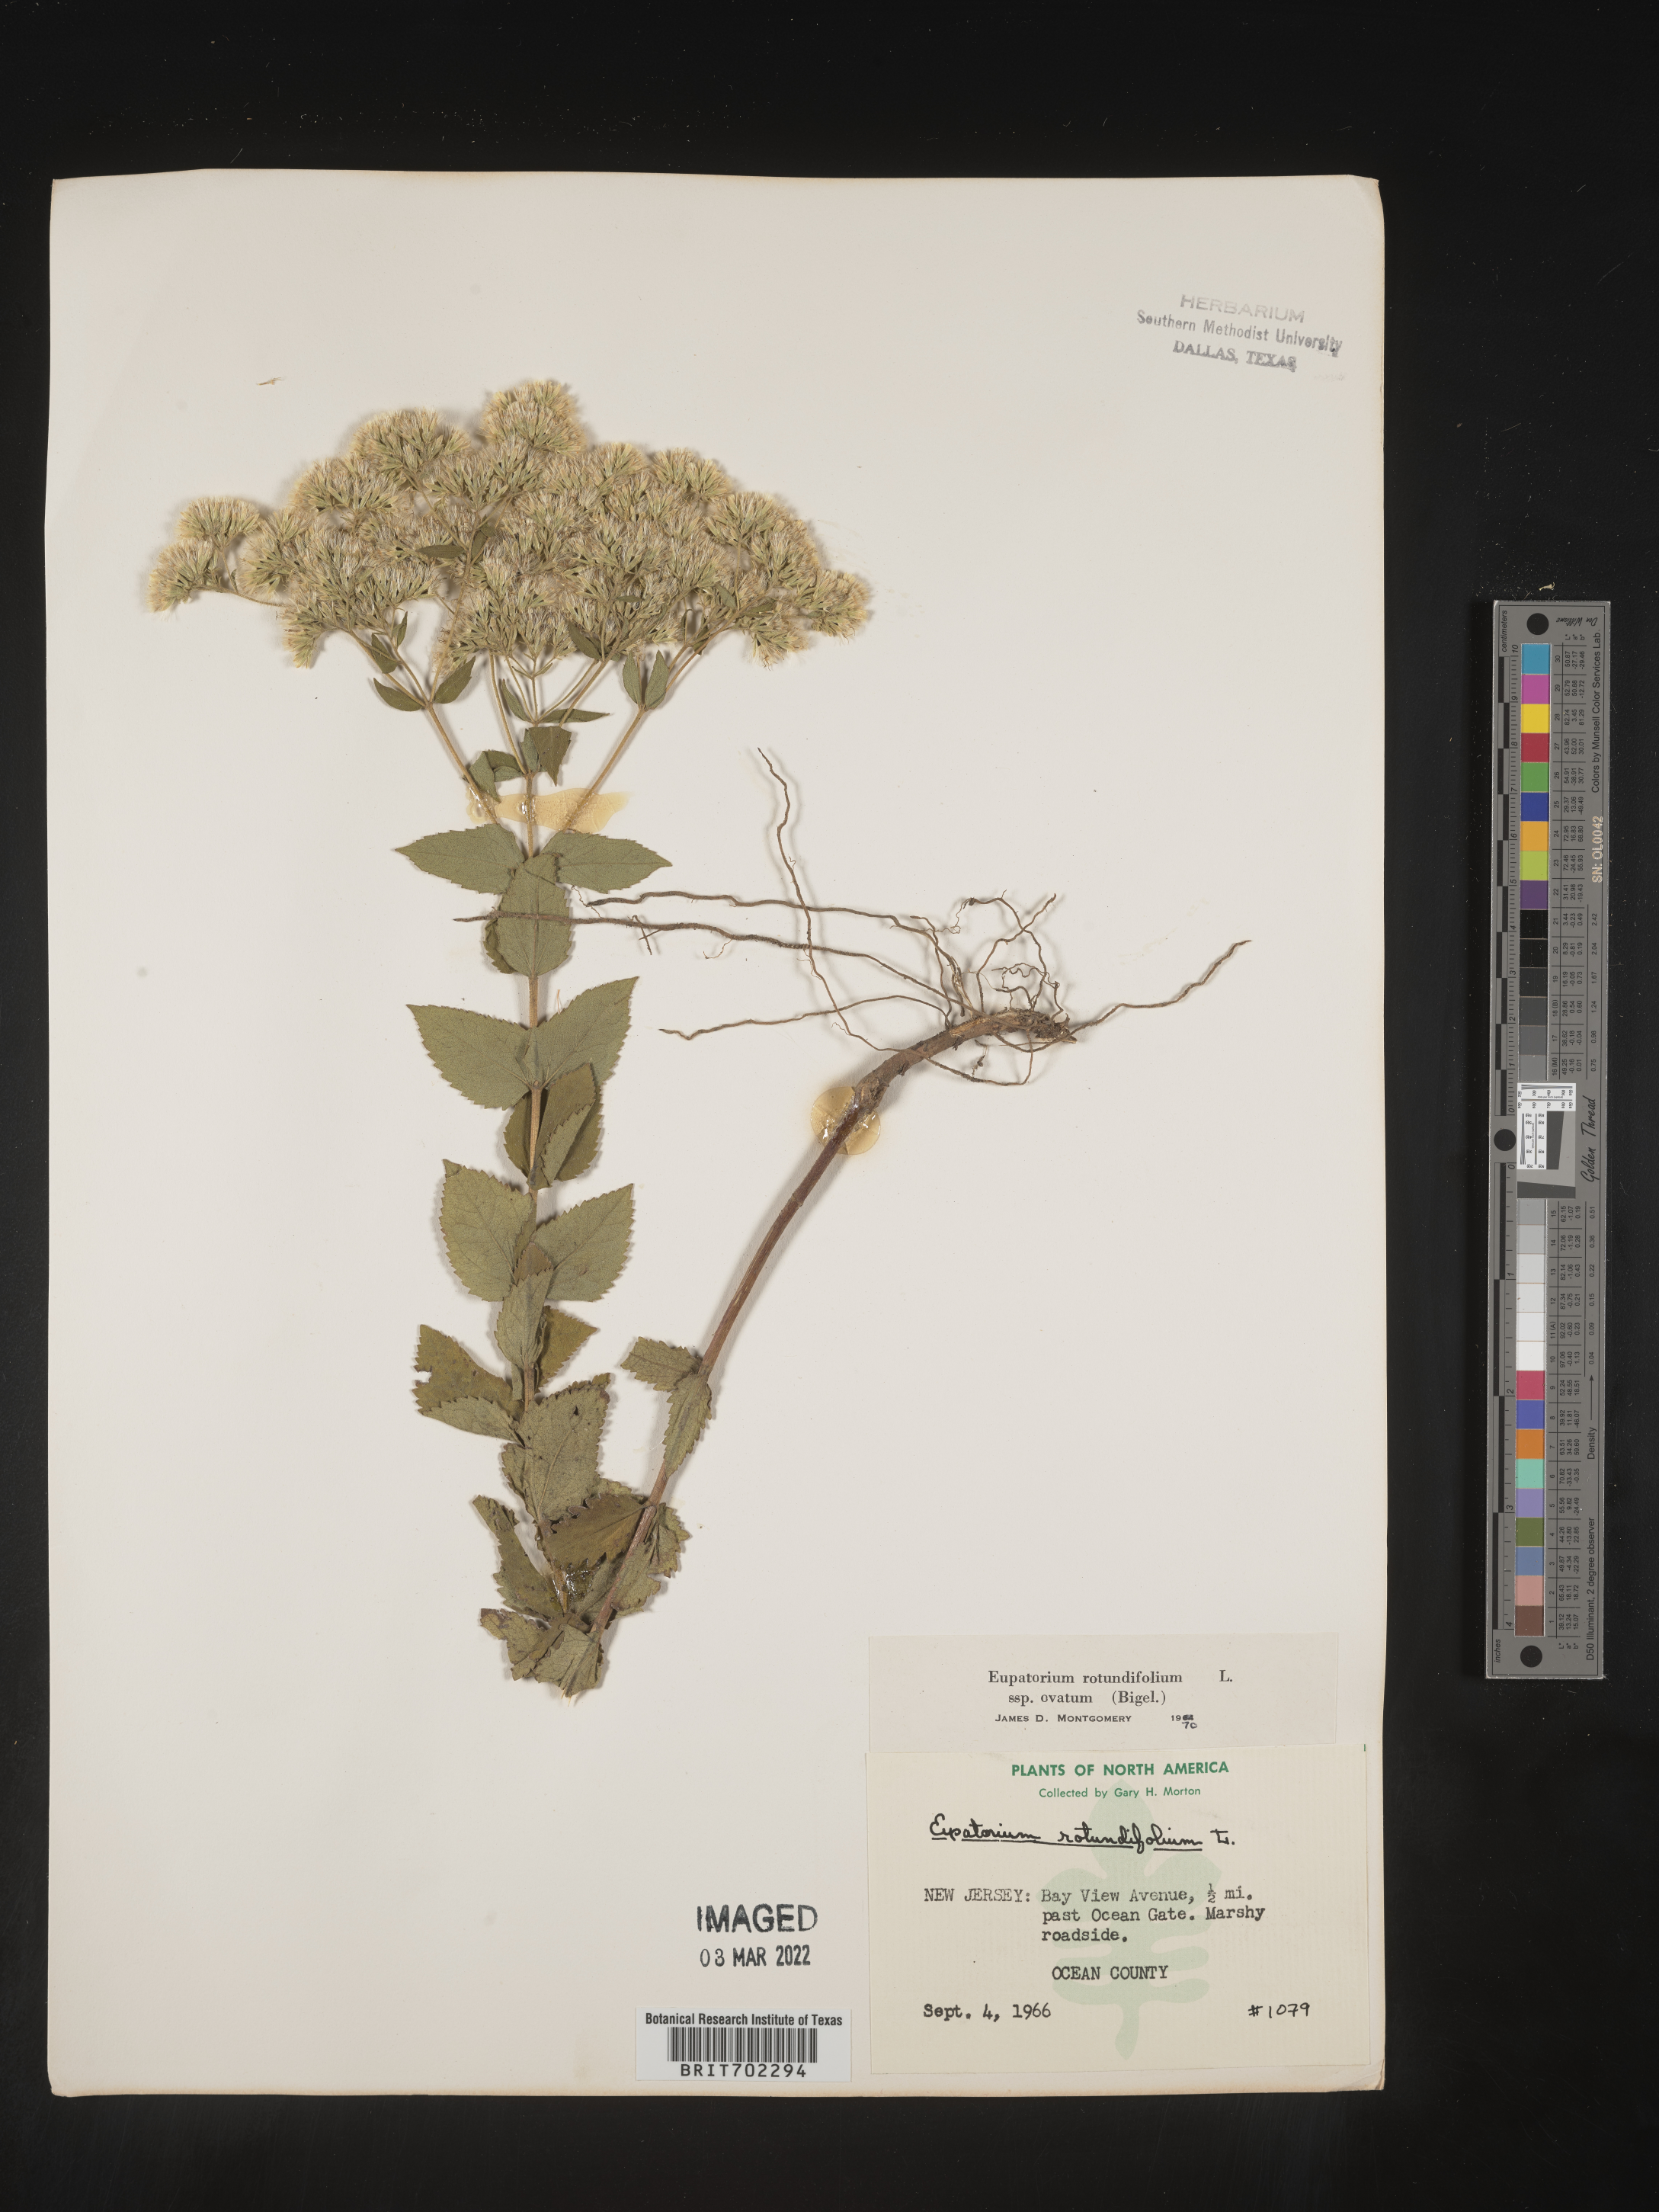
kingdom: Plantae
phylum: Tracheophyta
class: Magnoliopsida
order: Asterales
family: Asteraceae
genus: Eupatorium
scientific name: Eupatorium rotundifolium
